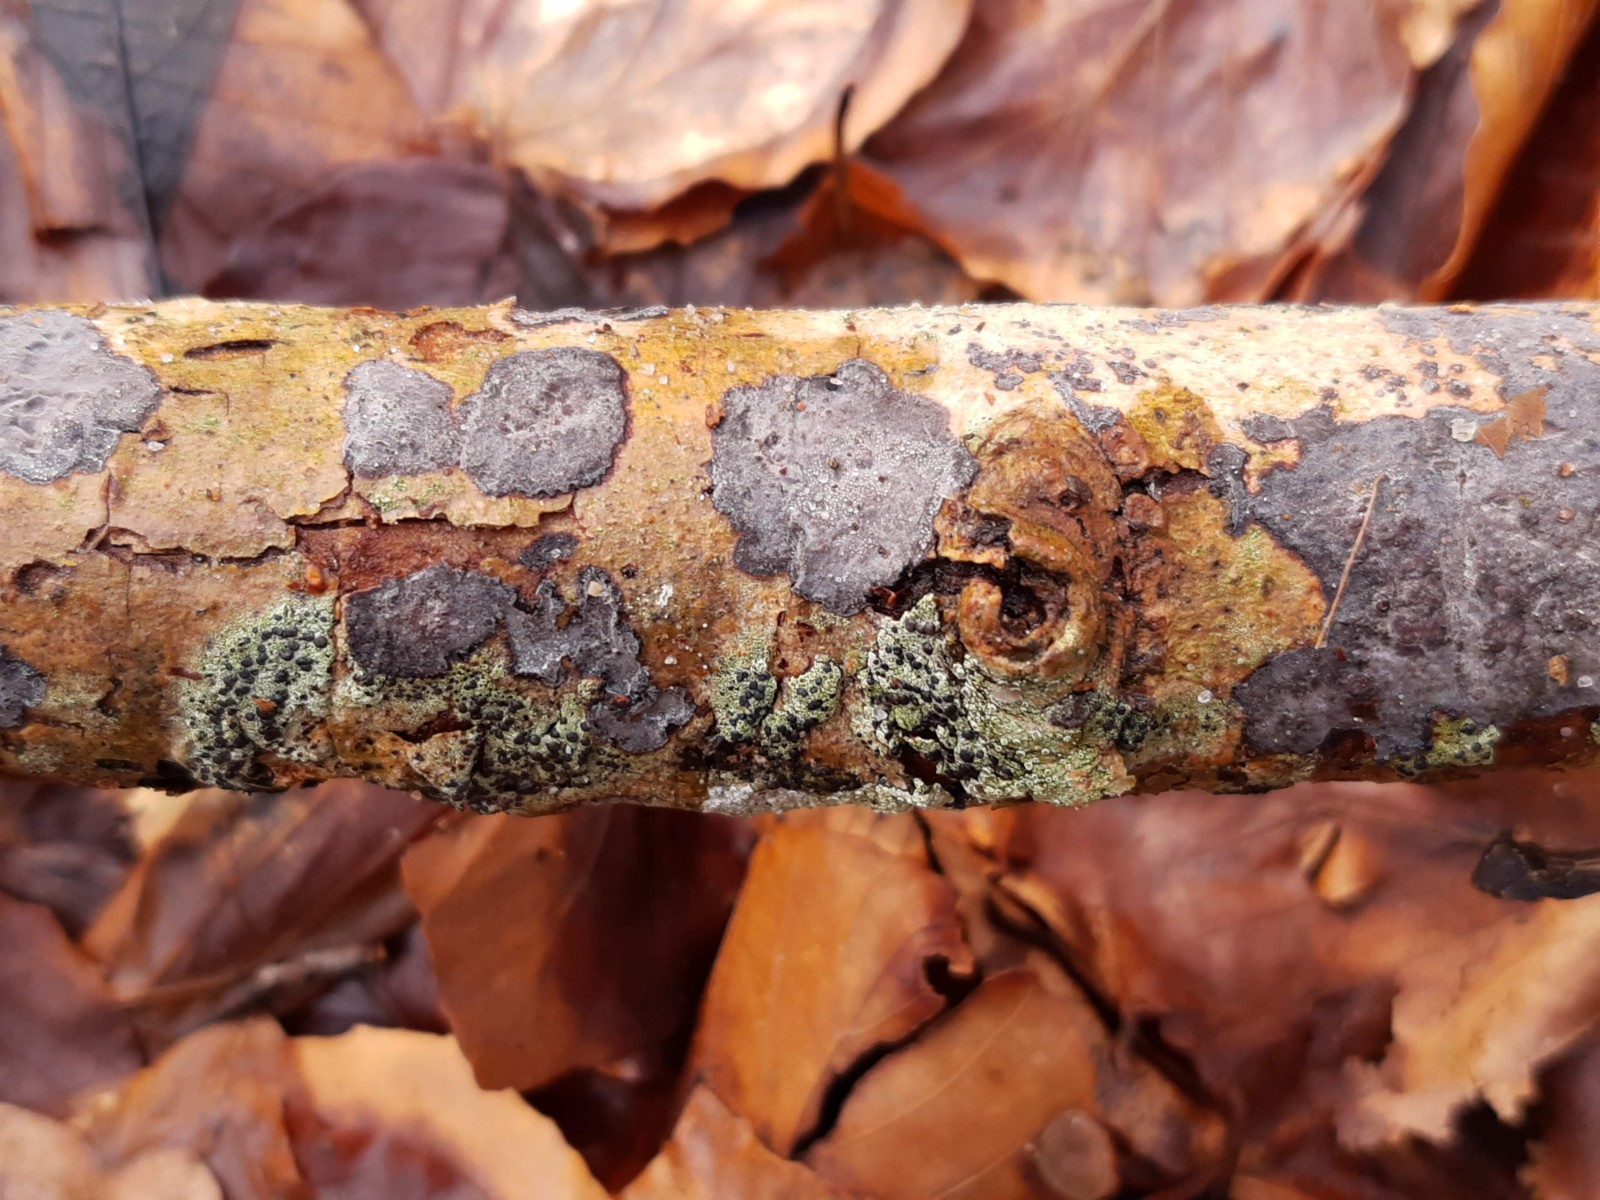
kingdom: Fungi
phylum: Basidiomycota
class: Agaricomycetes
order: Russulales
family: Peniophoraceae
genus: Peniophora
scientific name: Peniophora limitata
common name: mørkrandet voksskind
